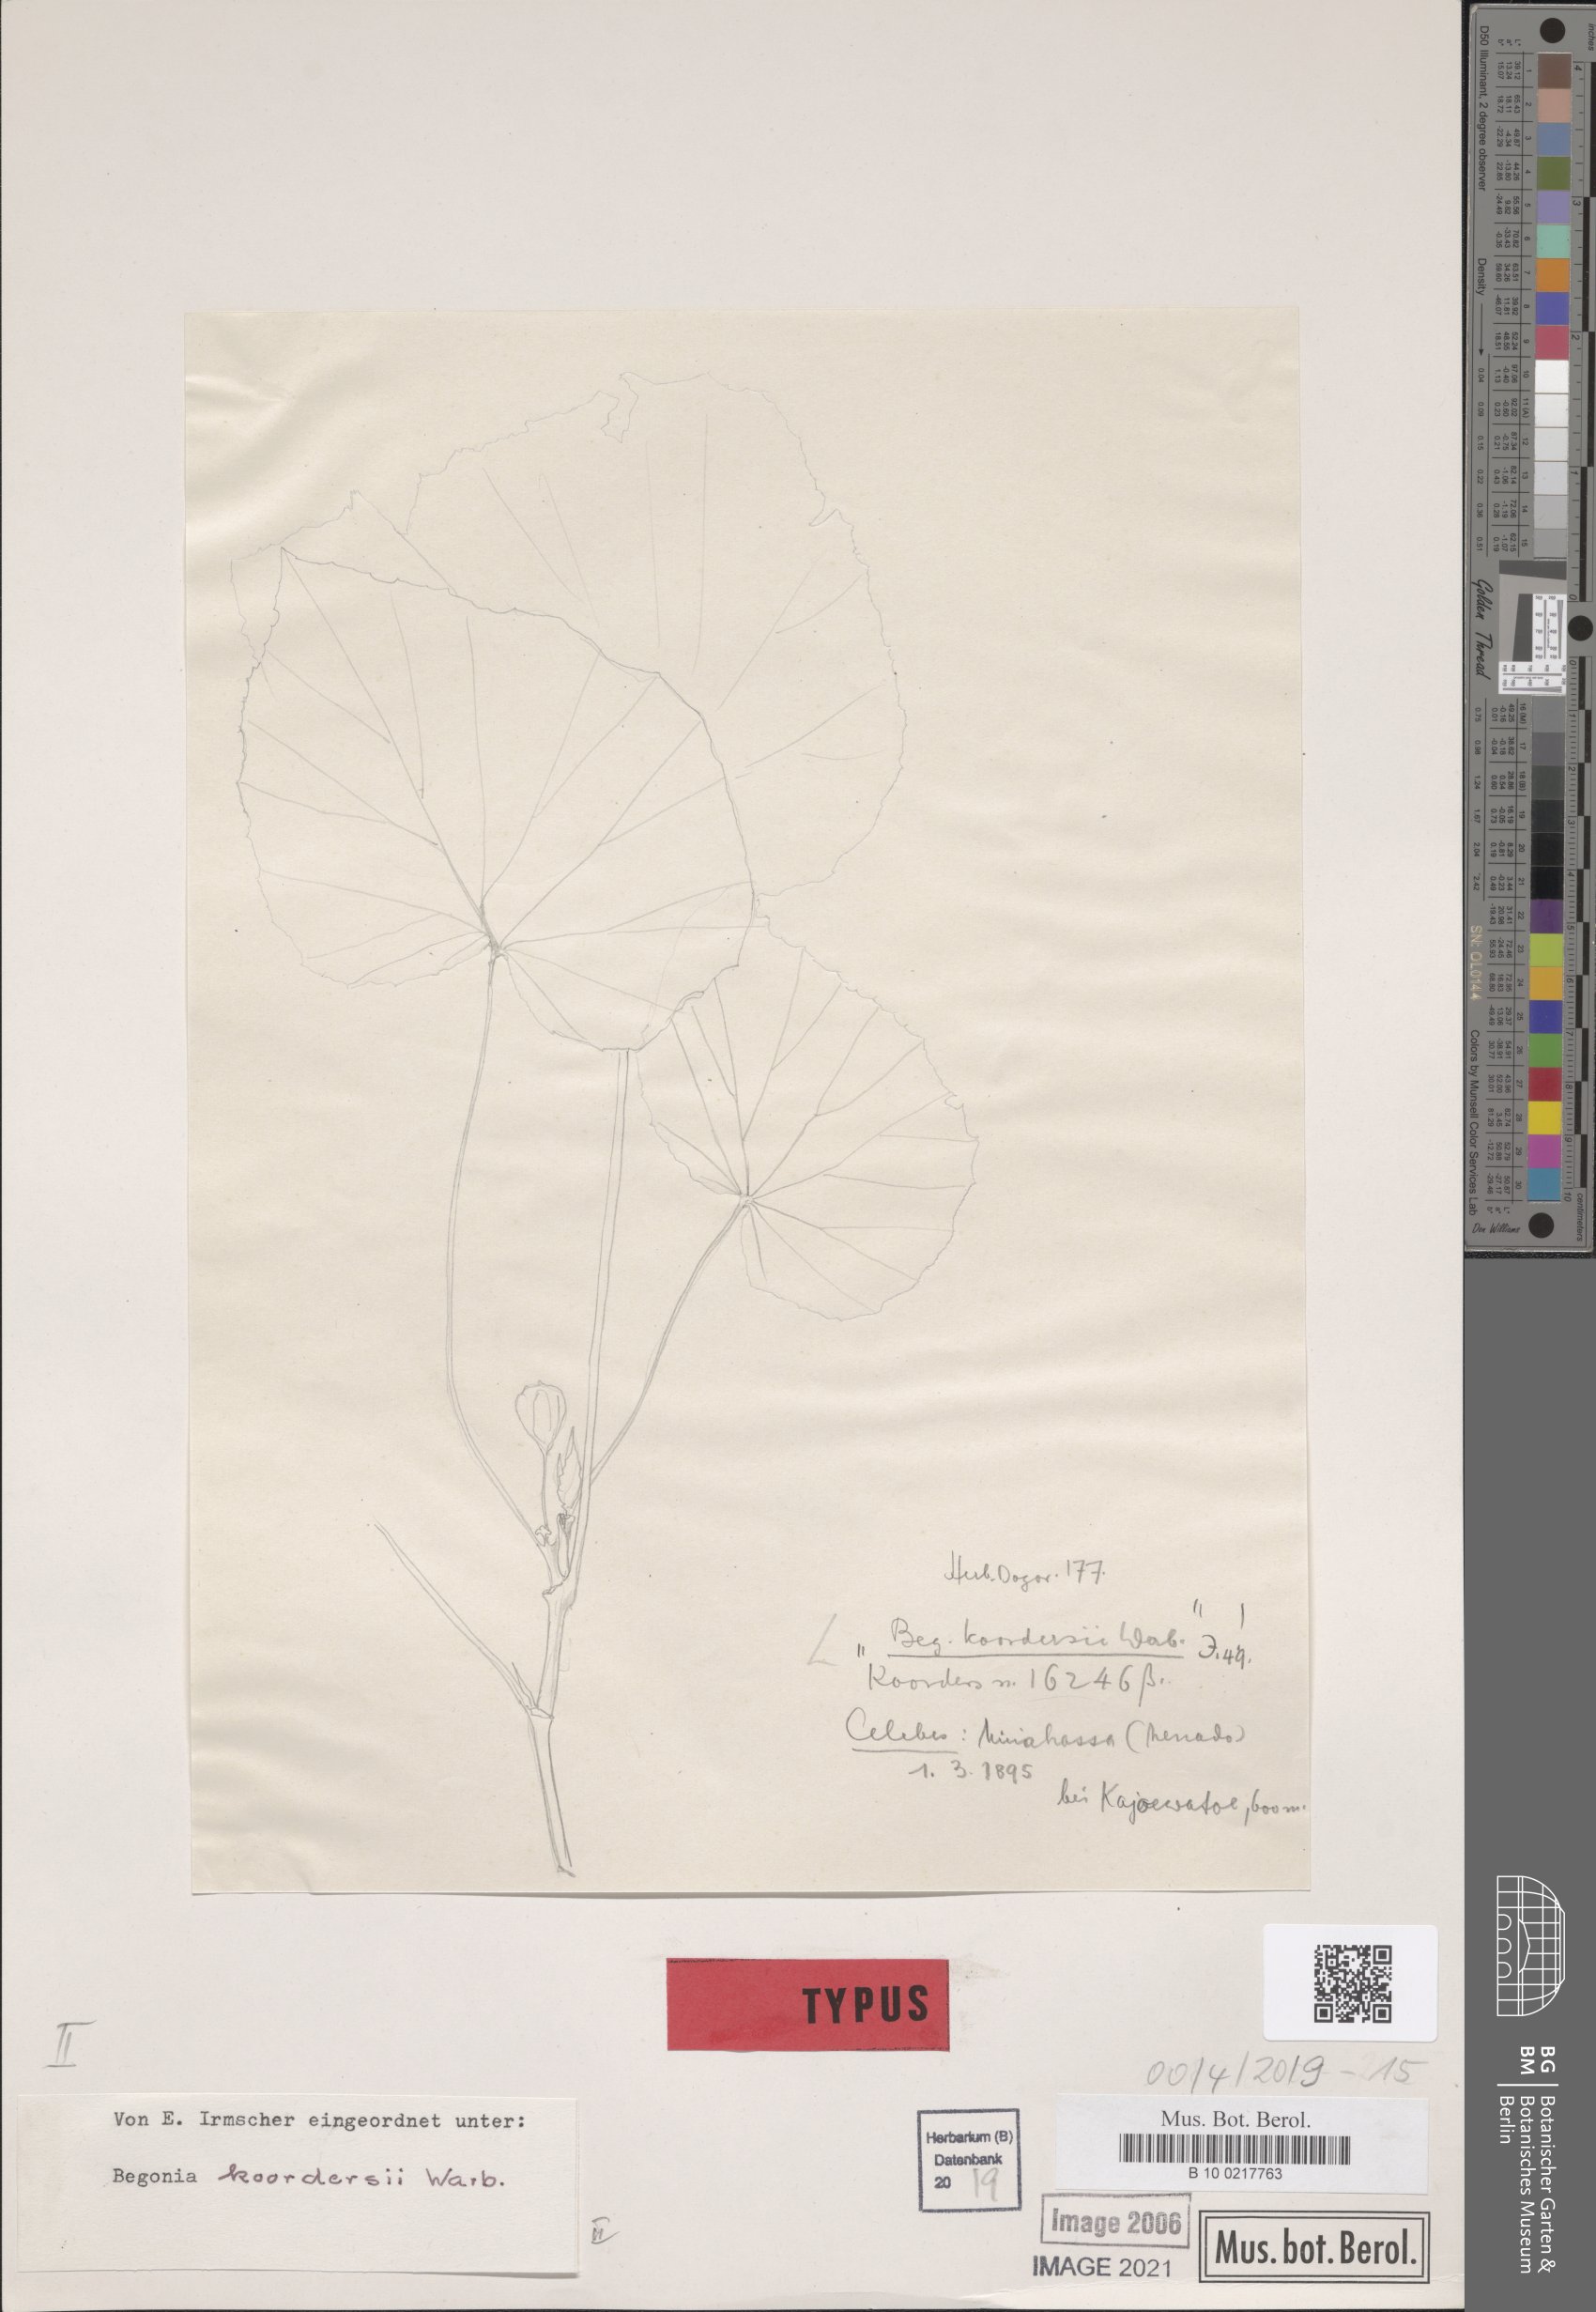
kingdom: Plantae
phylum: Tracheophyta
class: Magnoliopsida
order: Cucurbitales
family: Begoniaceae
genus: Begonia
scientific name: Begonia koordersii
